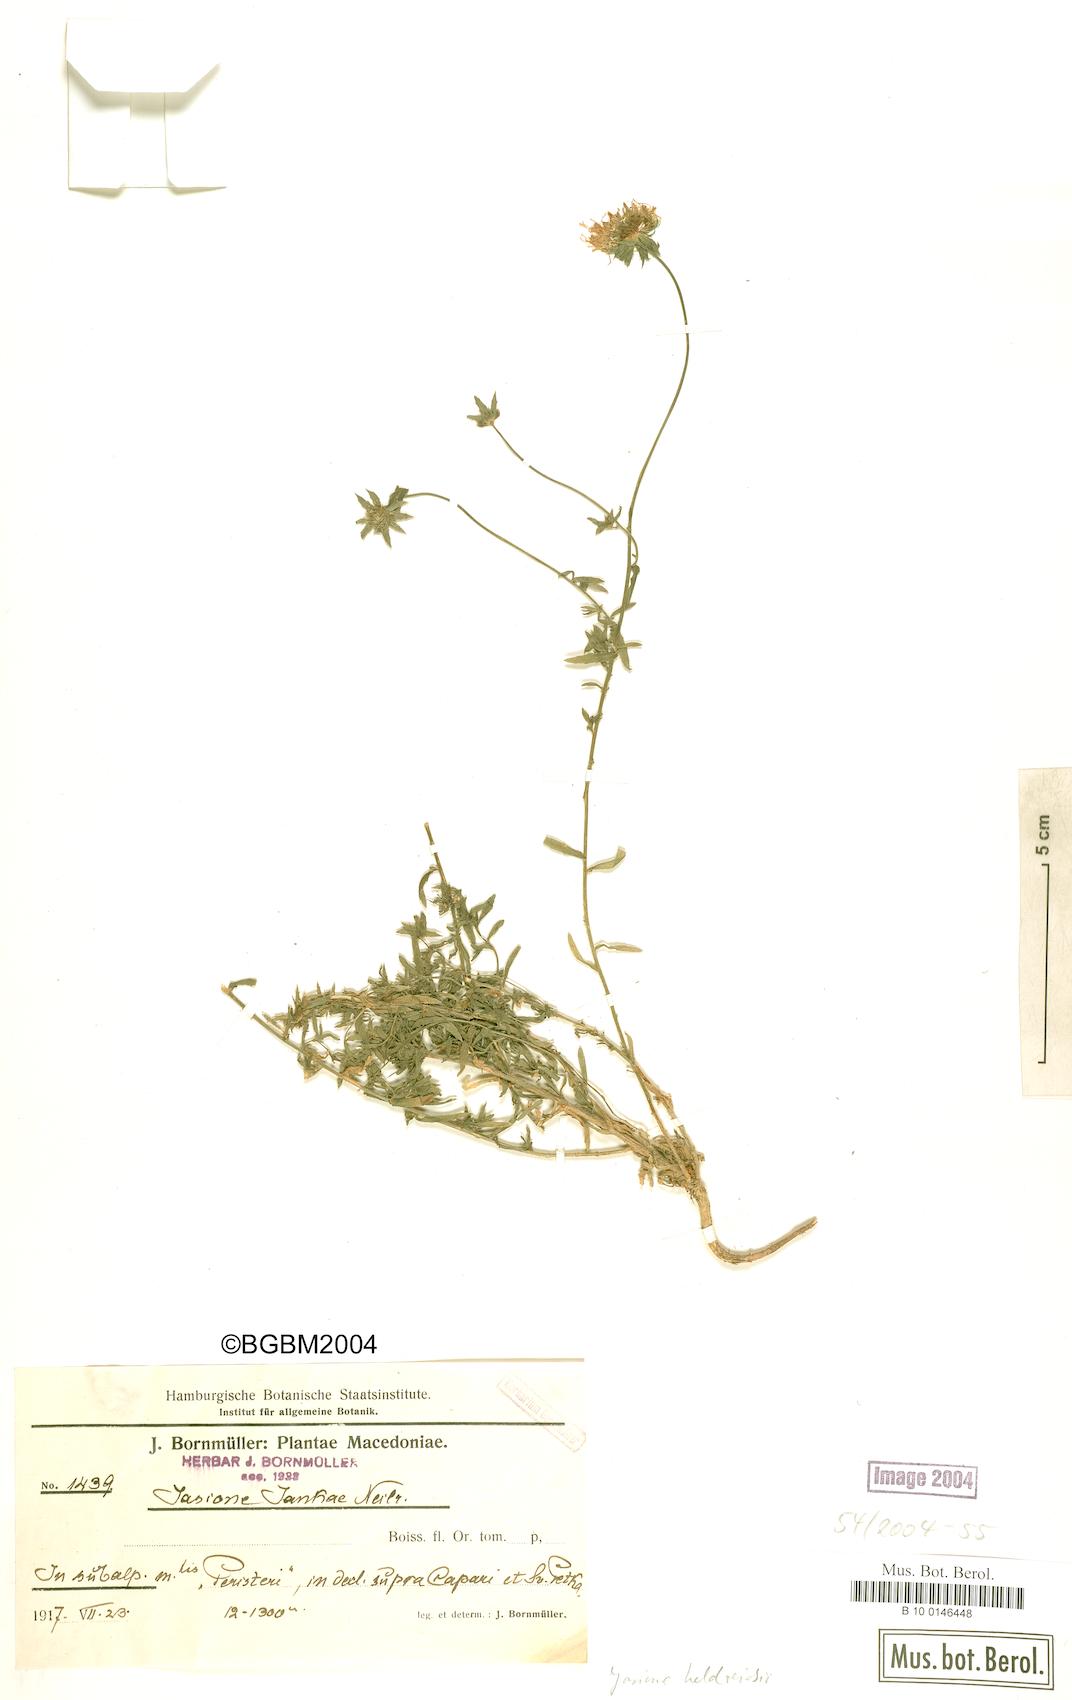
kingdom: Plantae
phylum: Tracheophyta
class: Magnoliopsida
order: Asterales
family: Campanulaceae
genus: Jasione
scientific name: Jasione heldreichii
